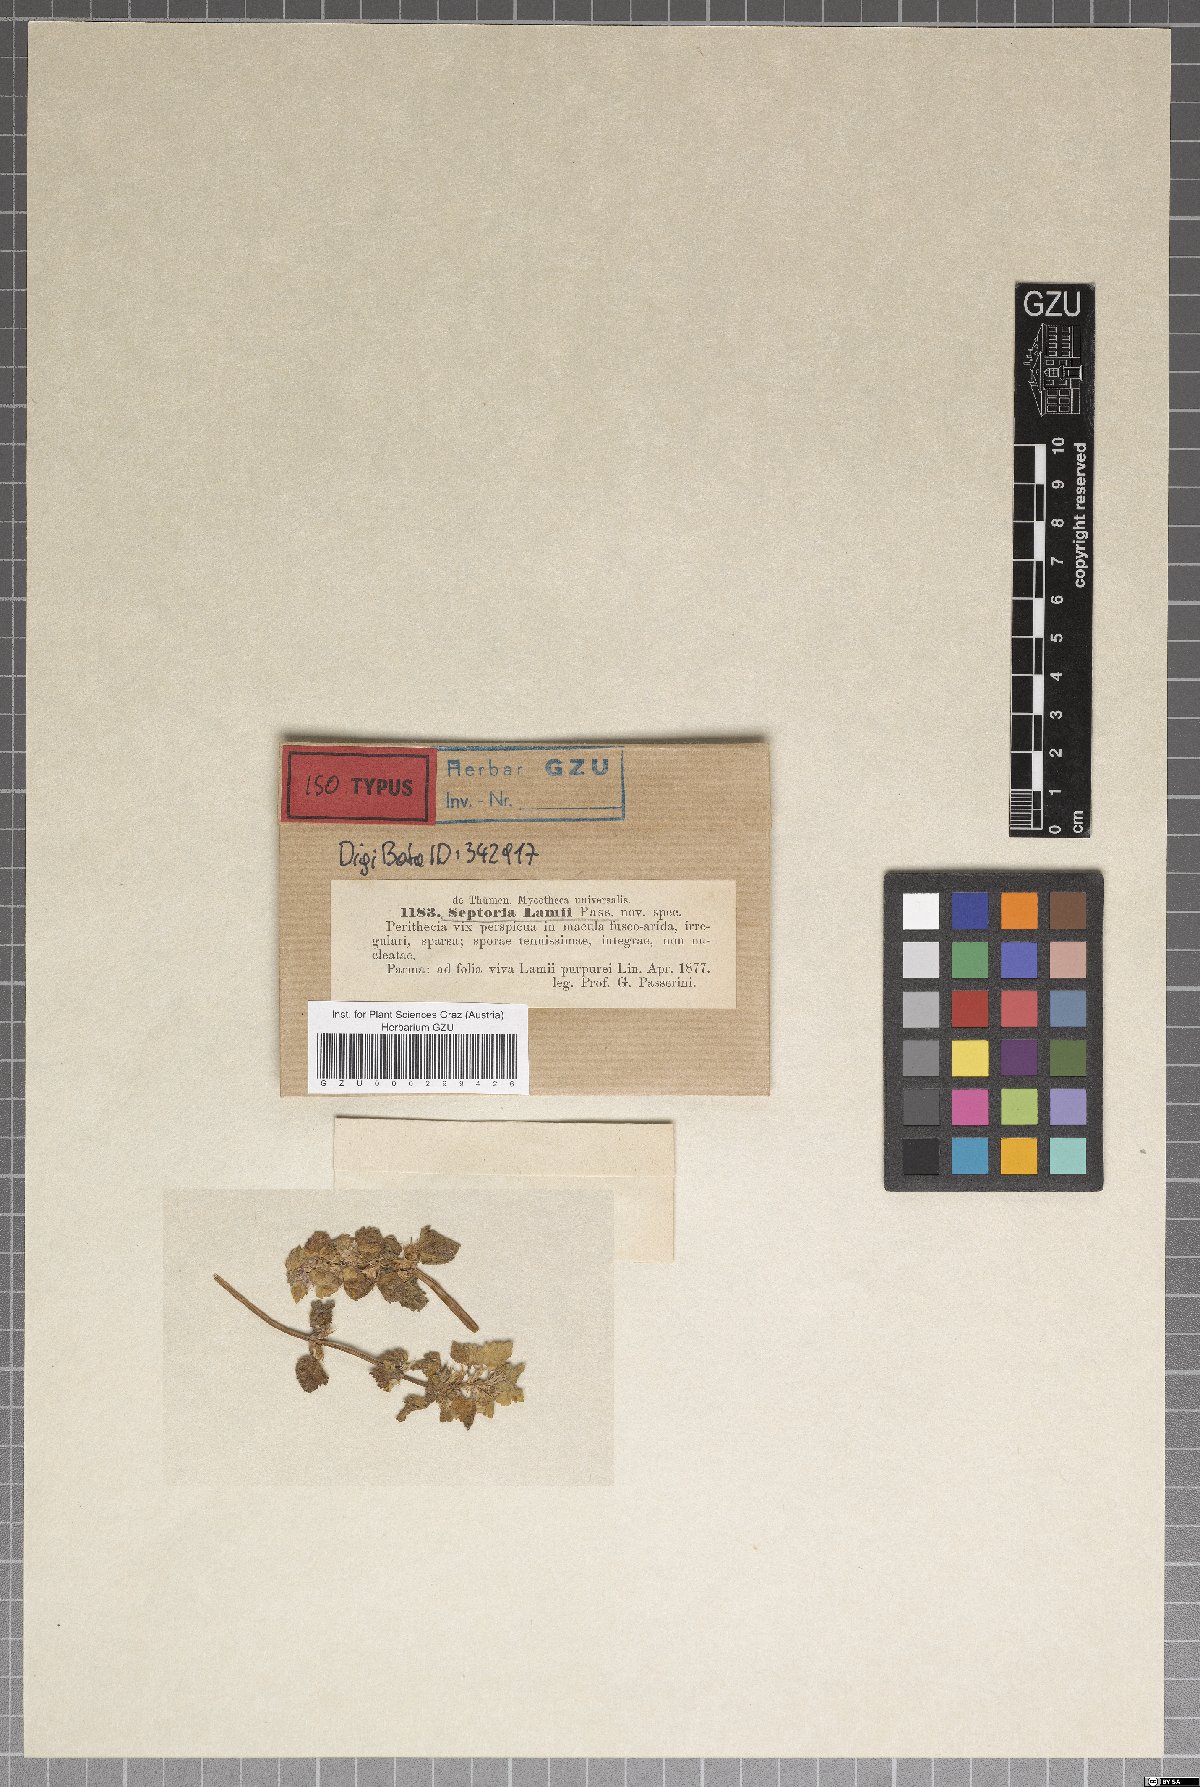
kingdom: Fungi
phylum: Ascomycota
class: Dothideomycetes
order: Mycosphaerellales
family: Mycosphaerellaceae
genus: Septoria
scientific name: Septoria lamii
